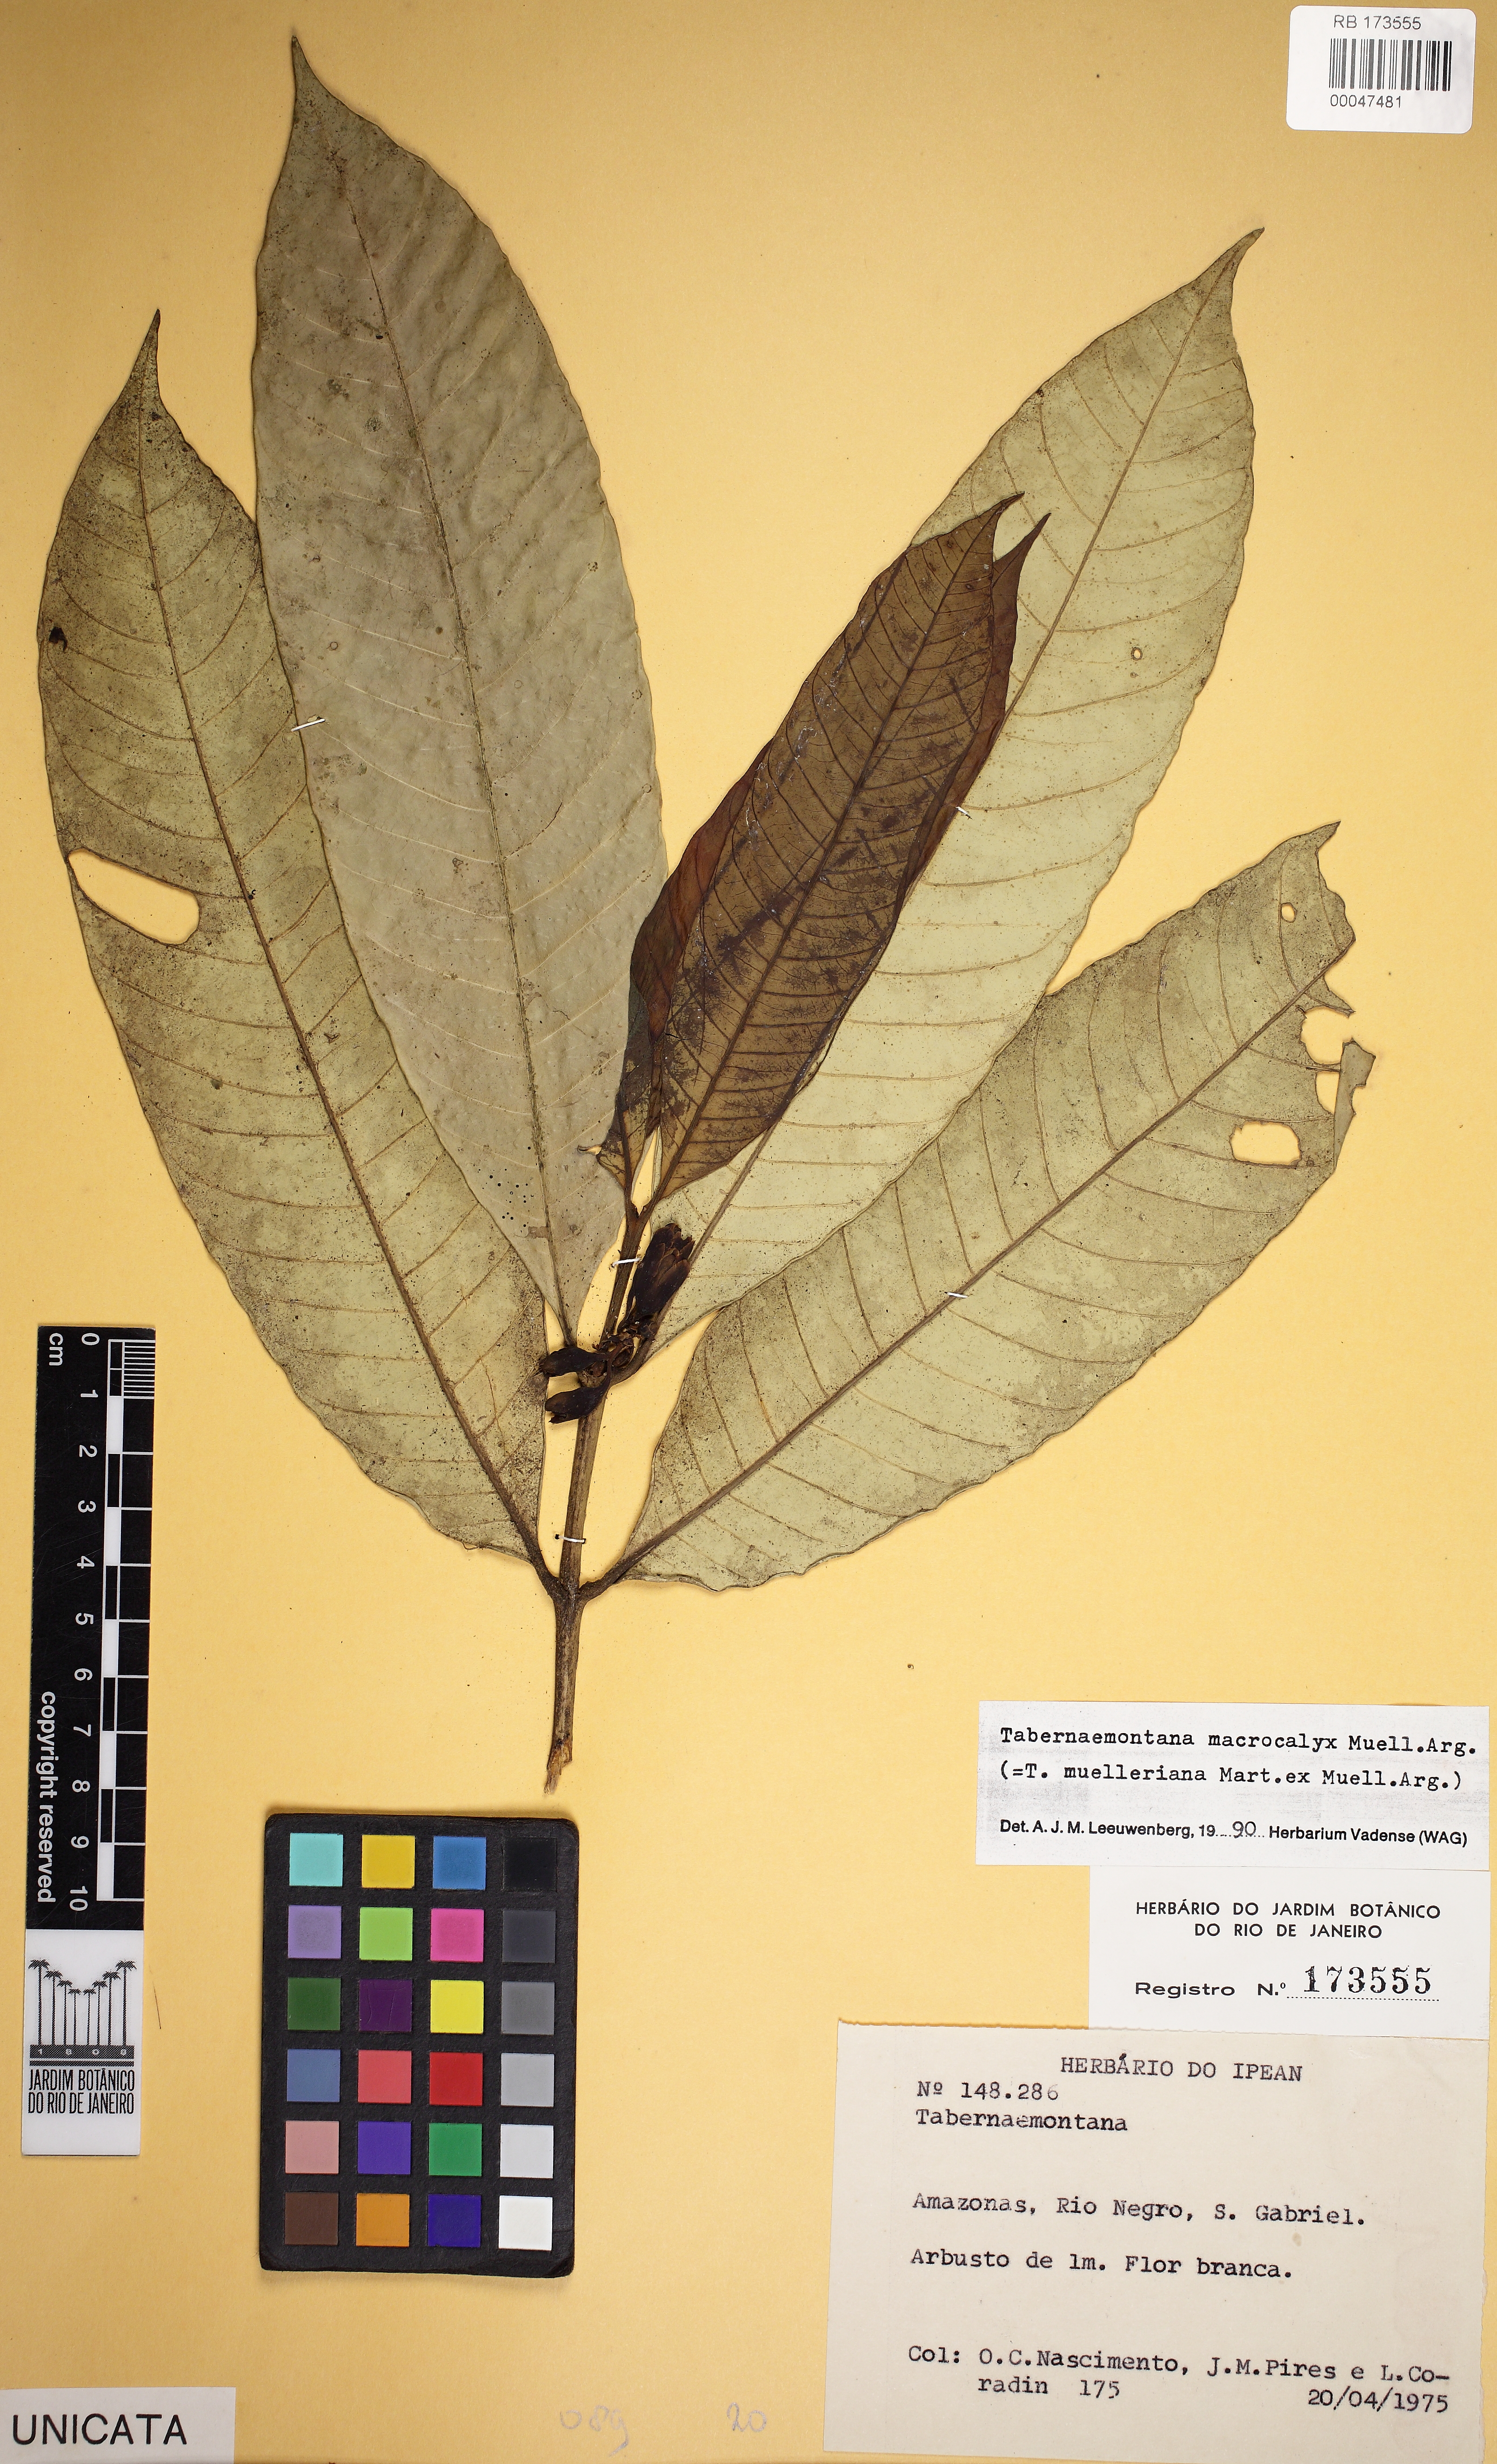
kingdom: Plantae
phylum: Tracheophyta
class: Magnoliopsida
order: Gentianales
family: Apocynaceae
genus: Tabernaemontana
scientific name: Tabernaemontana macrocalyx
